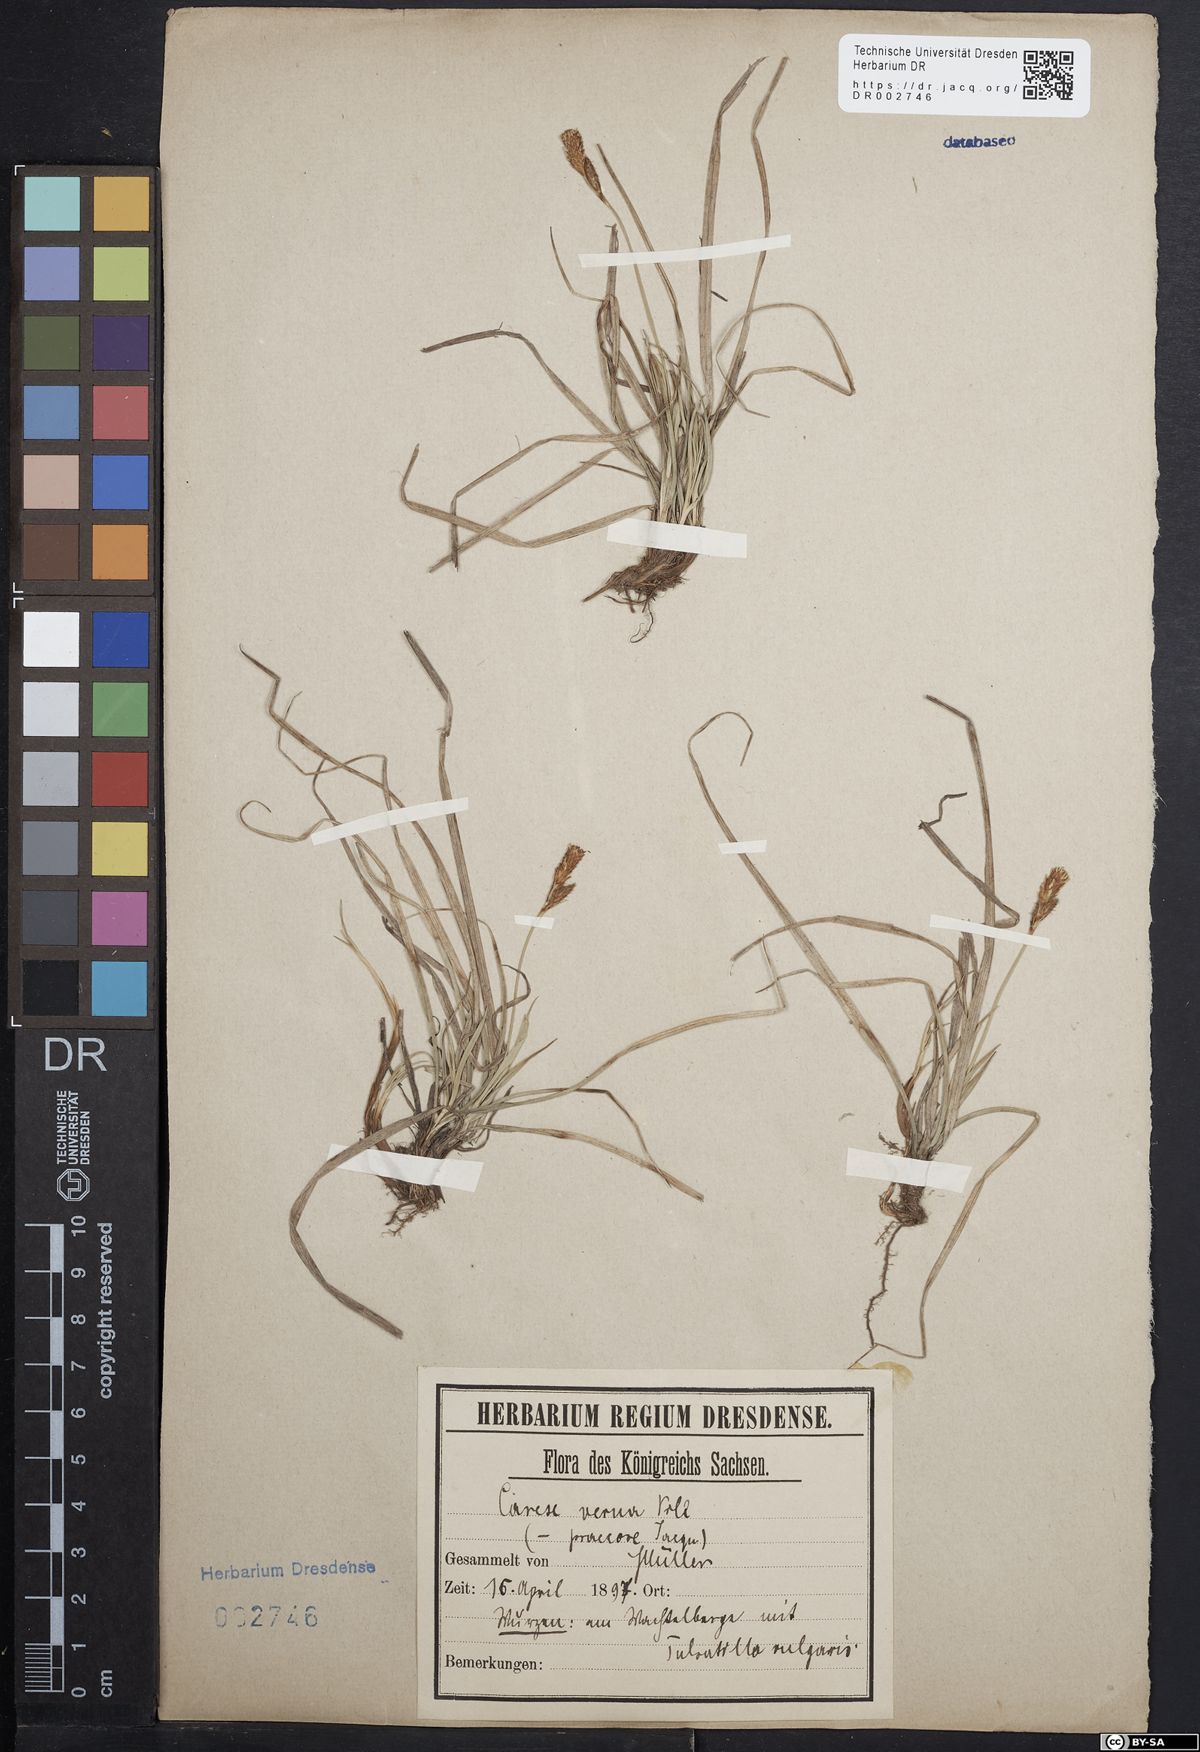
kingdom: Plantae
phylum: Tracheophyta
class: Liliopsida
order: Poales
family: Cyperaceae
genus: Carex
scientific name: Carex caryophyllea
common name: Spring sedge
